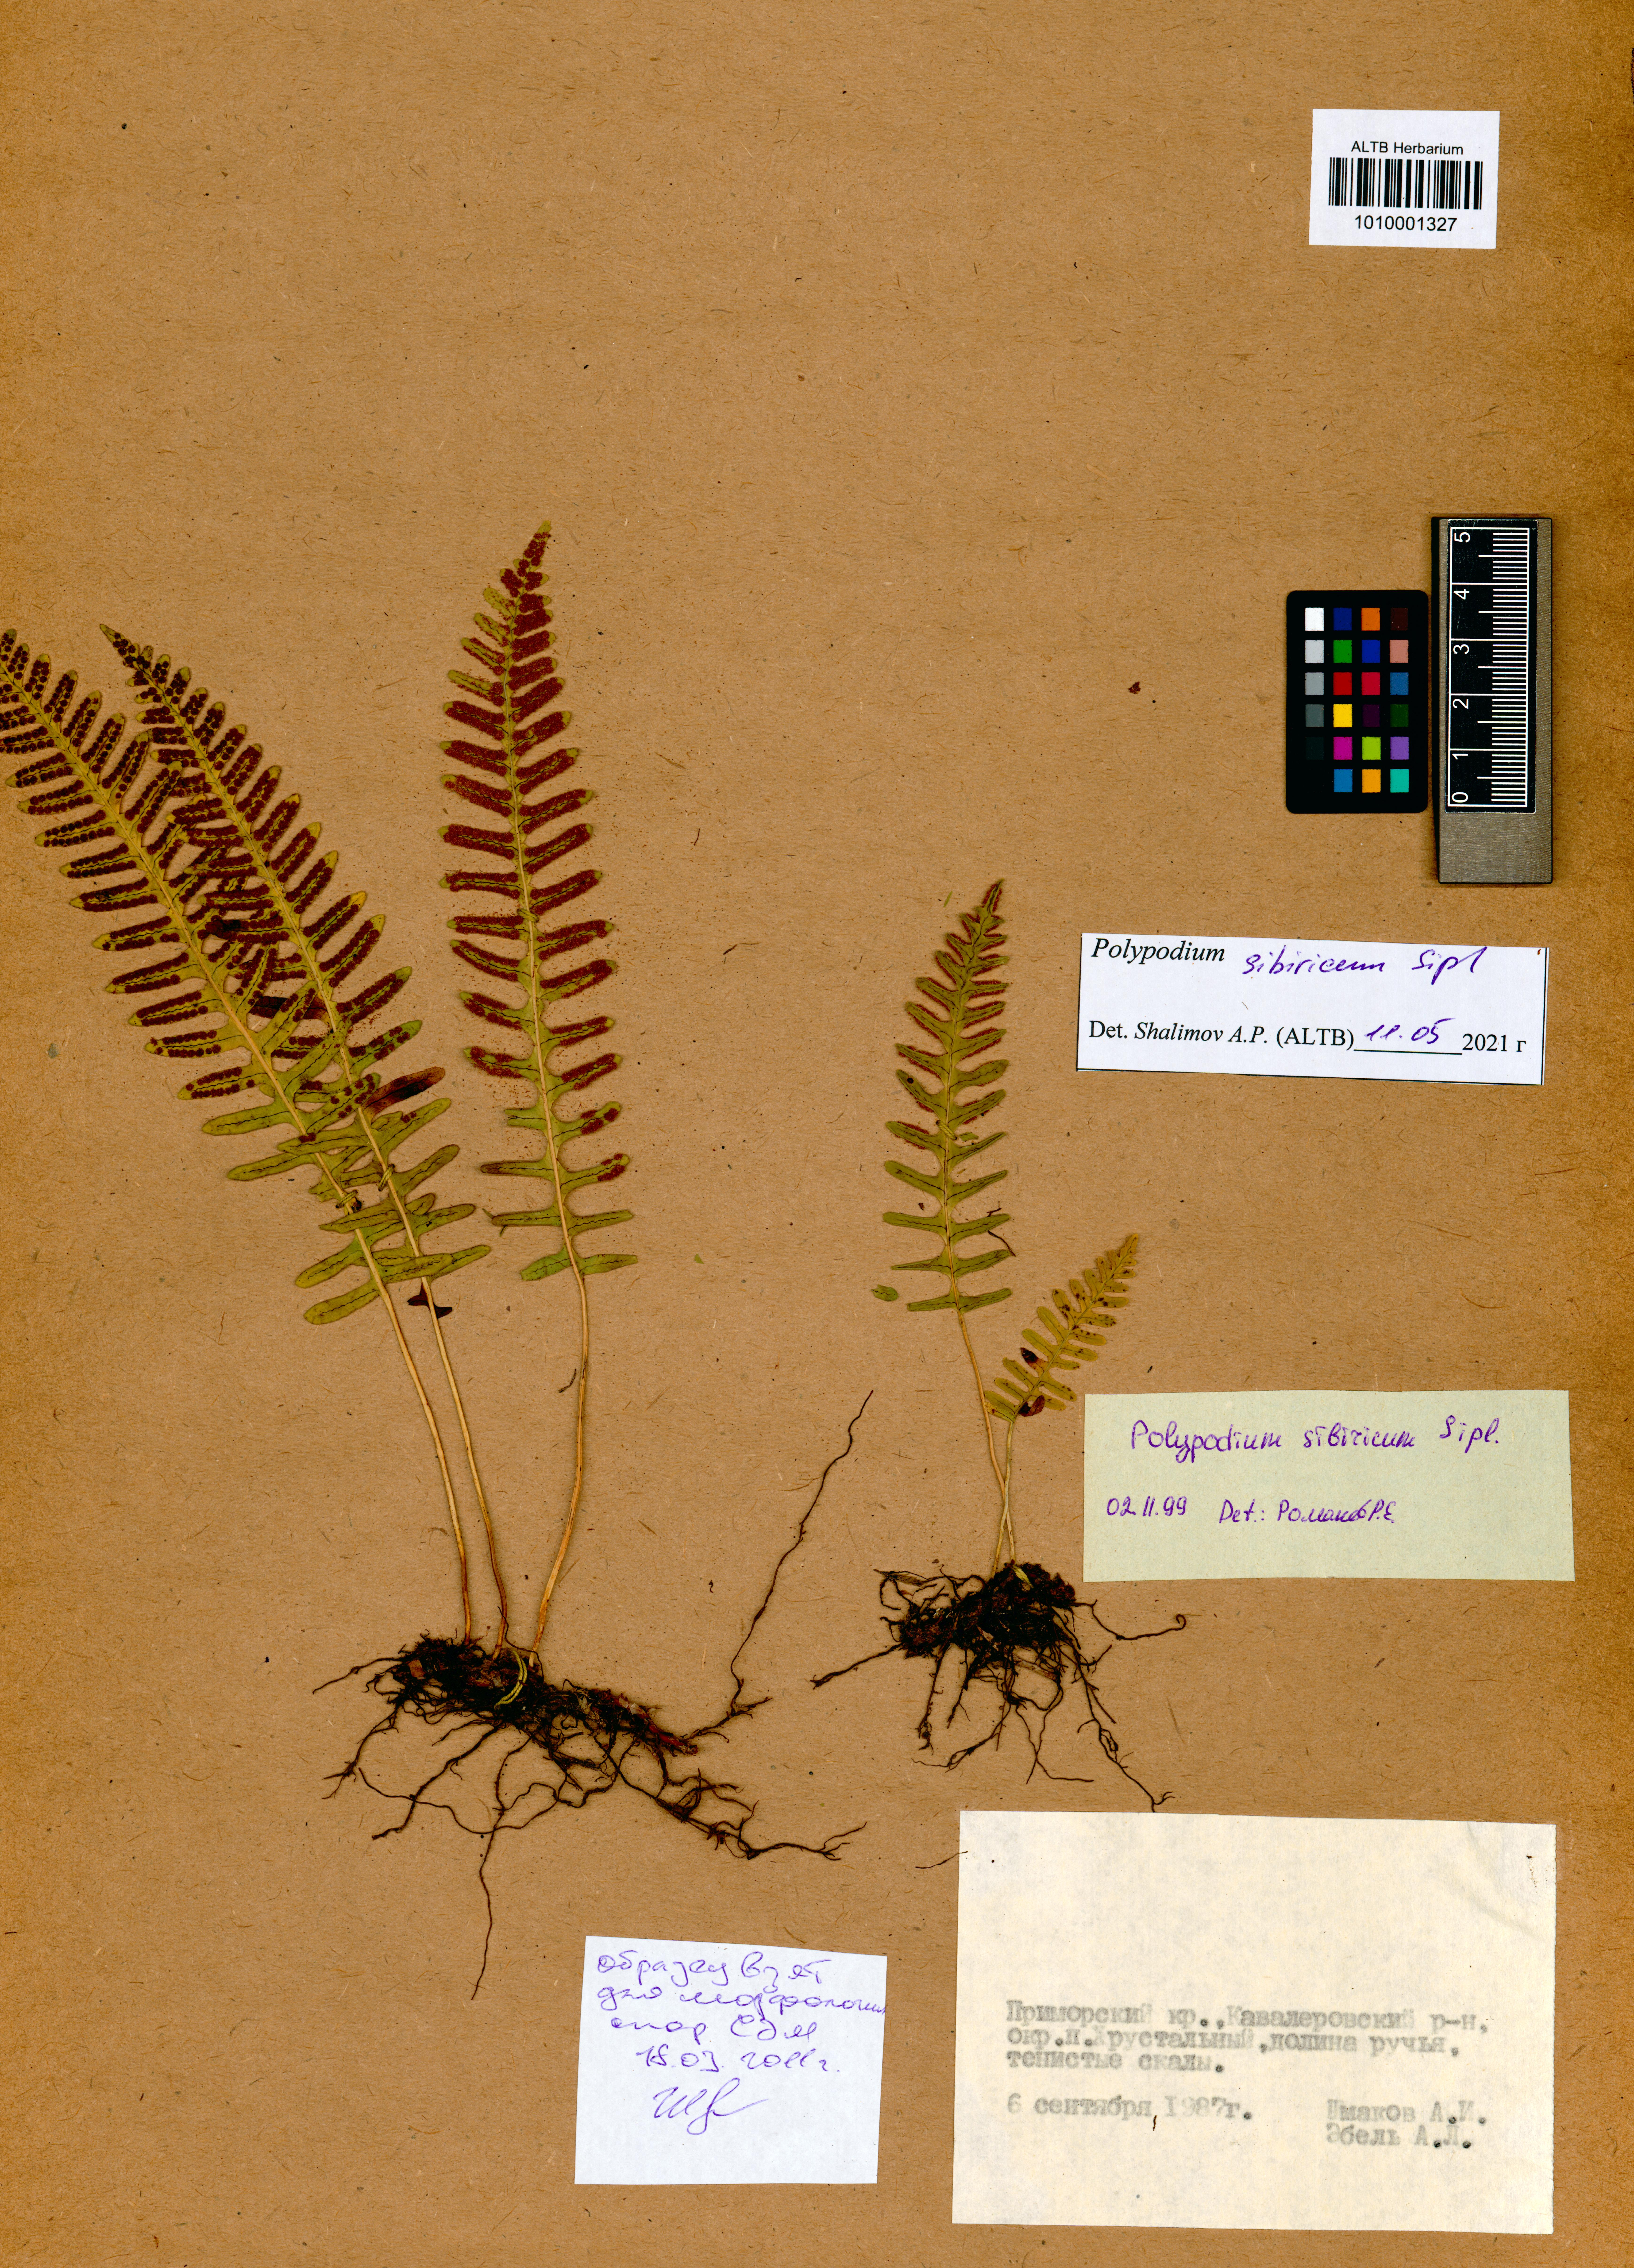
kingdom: Plantae
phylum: Tracheophyta
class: Polypodiopsida
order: Polypodiales
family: Polypodiaceae
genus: Polypodium
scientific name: Polypodium sibiricum
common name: Siberian polypody
